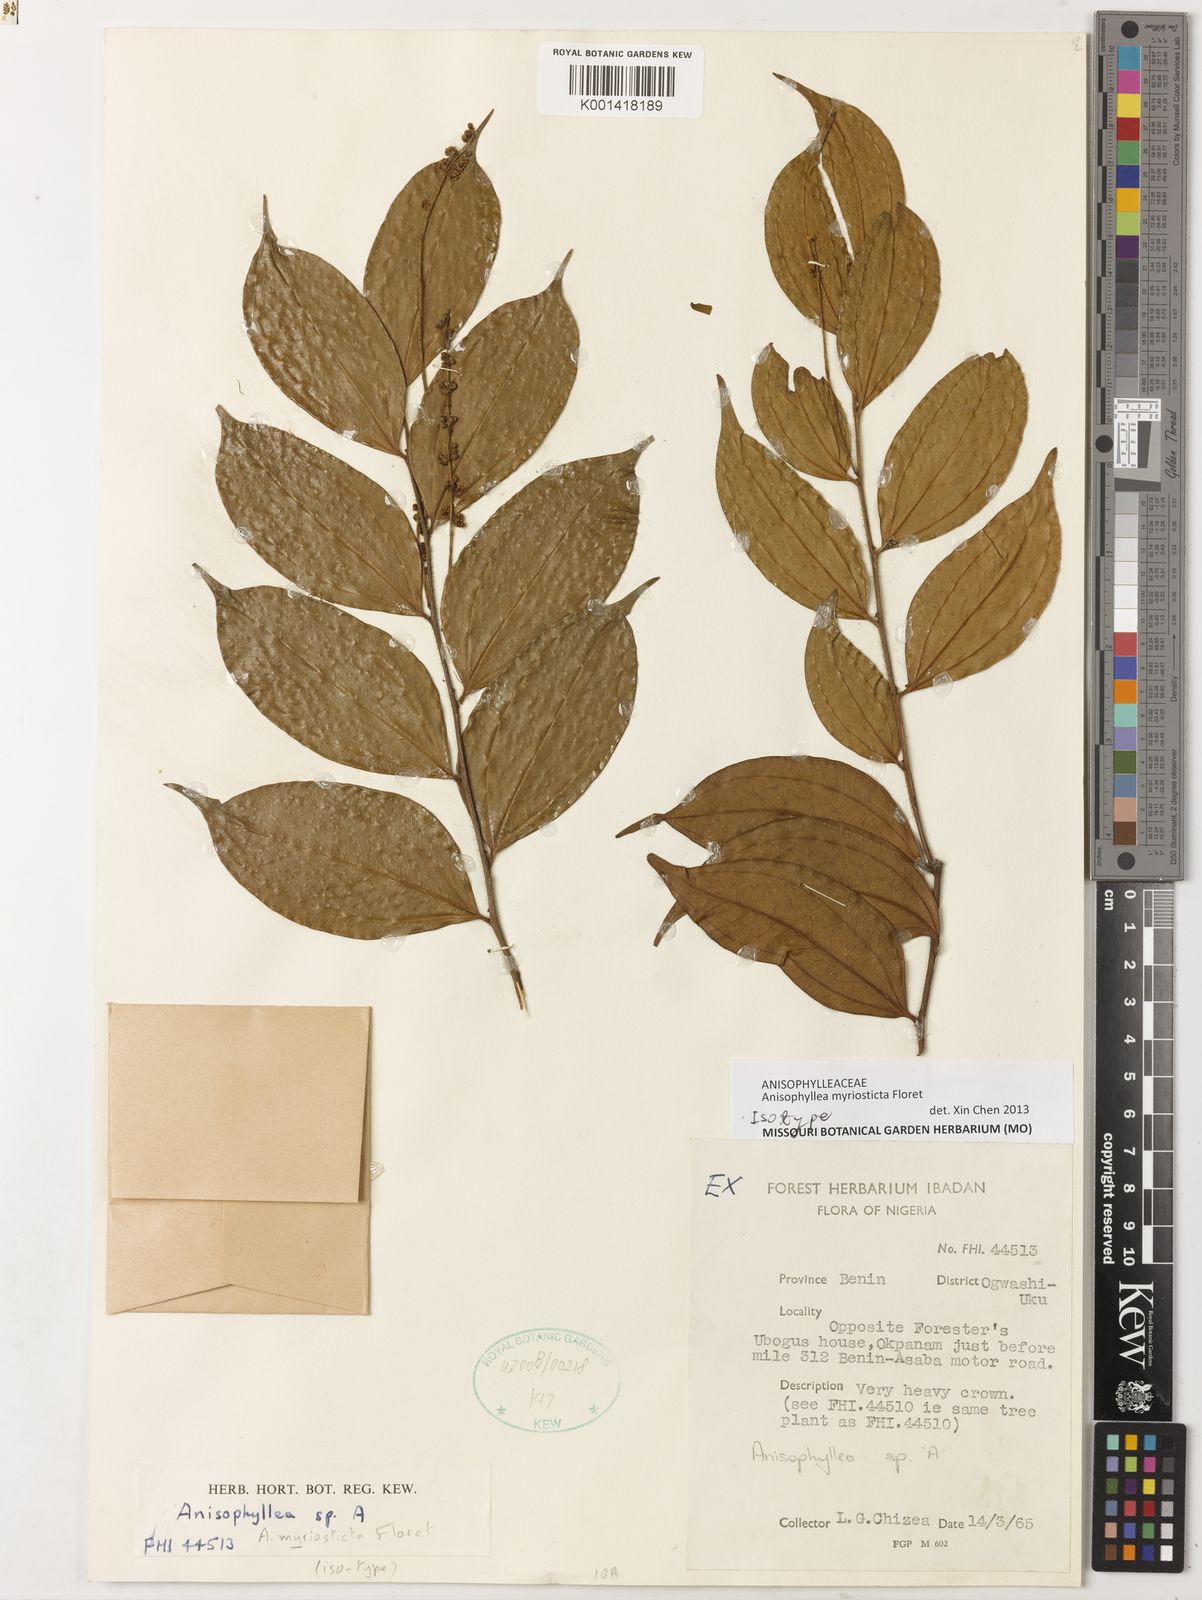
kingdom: Plantae
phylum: Tracheophyta
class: Magnoliopsida
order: Cucurbitales
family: Anisophylleaceae
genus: Anisophyllea
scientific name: Anisophyllea myriosticta
